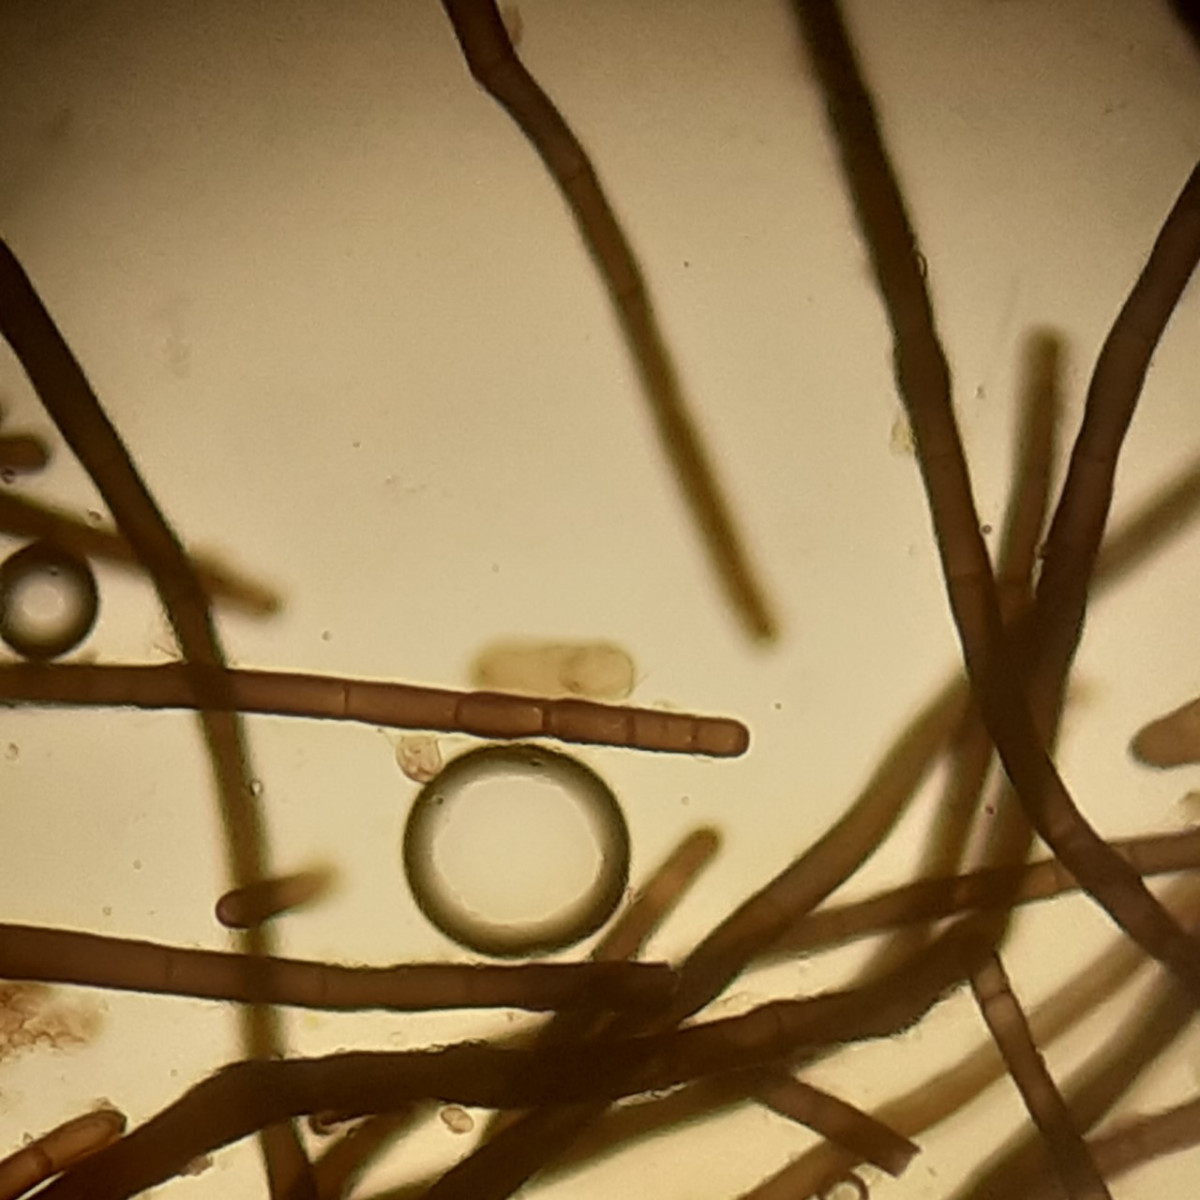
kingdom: Fungi
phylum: Ascomycota
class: Dothideomycetes
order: Pleosporales
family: Massarinaceae
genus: Helminthosporium
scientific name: Helminthosporium velutinum
